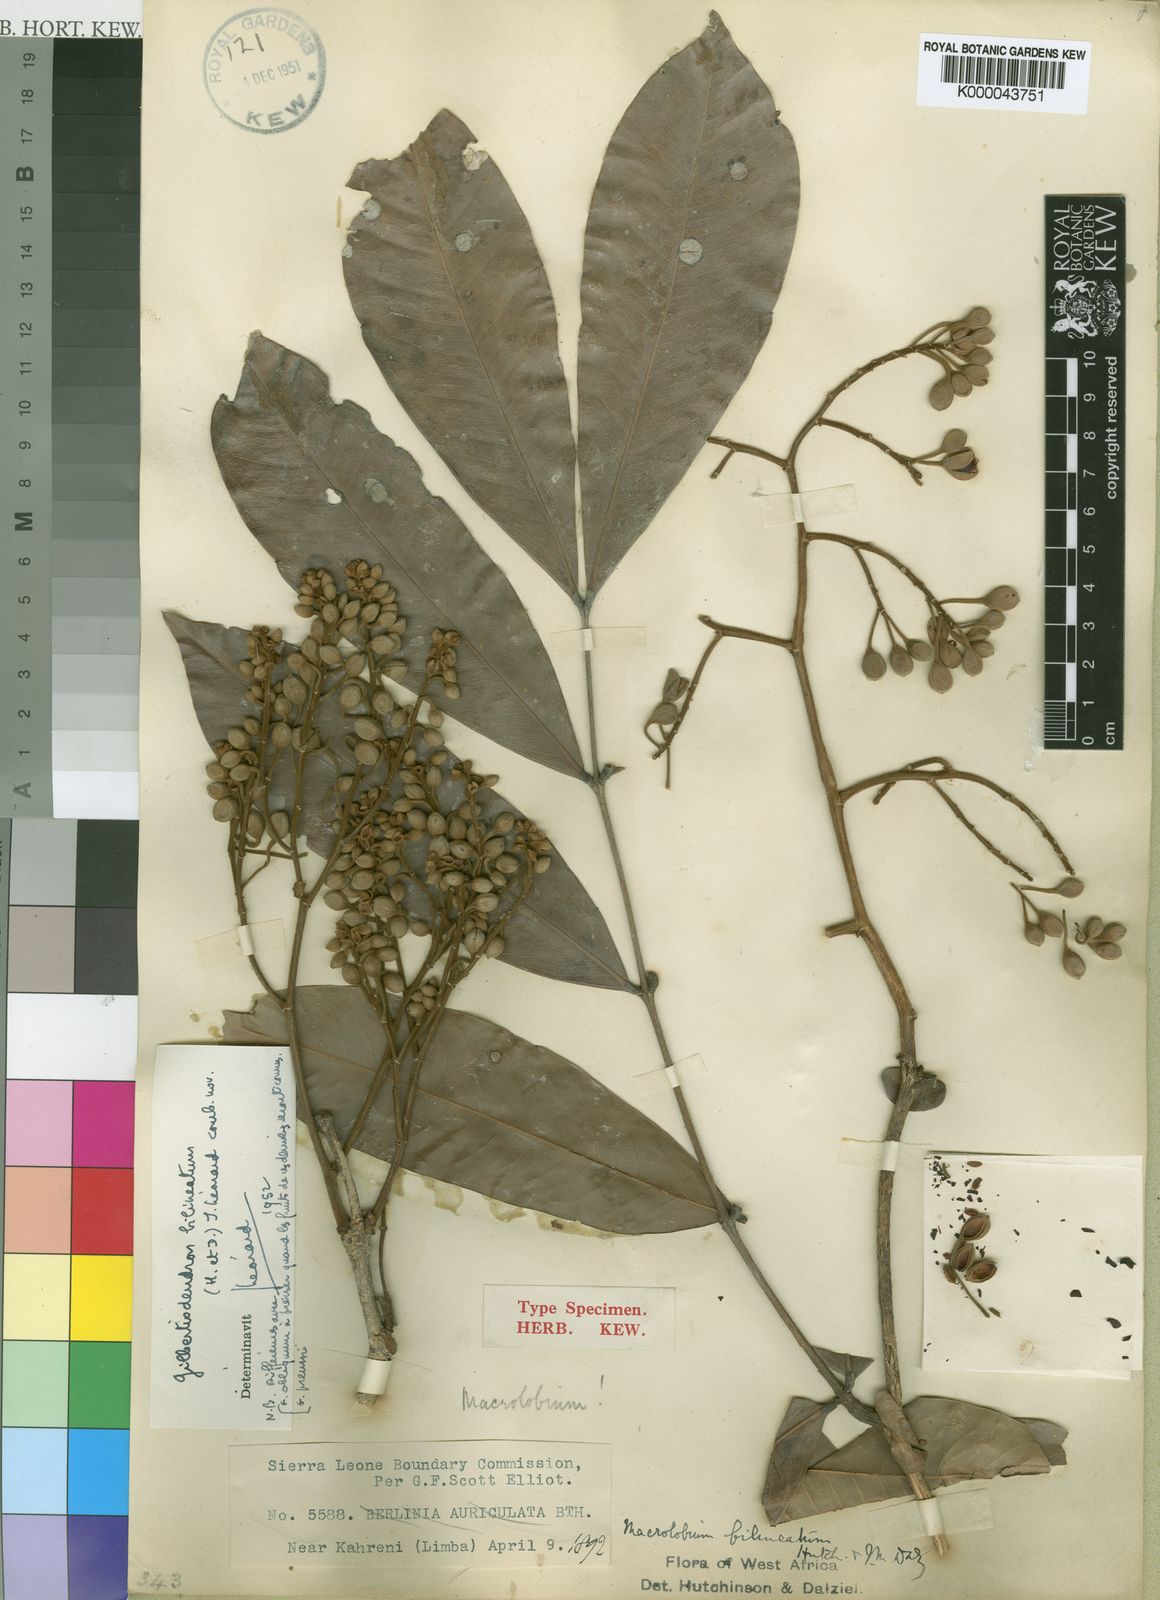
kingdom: Plantae
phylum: Tracheophyta
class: Magnoliopsida
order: Fabales
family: Fabaceae
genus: Gilbertiodendron
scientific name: Gilbertiodendron
